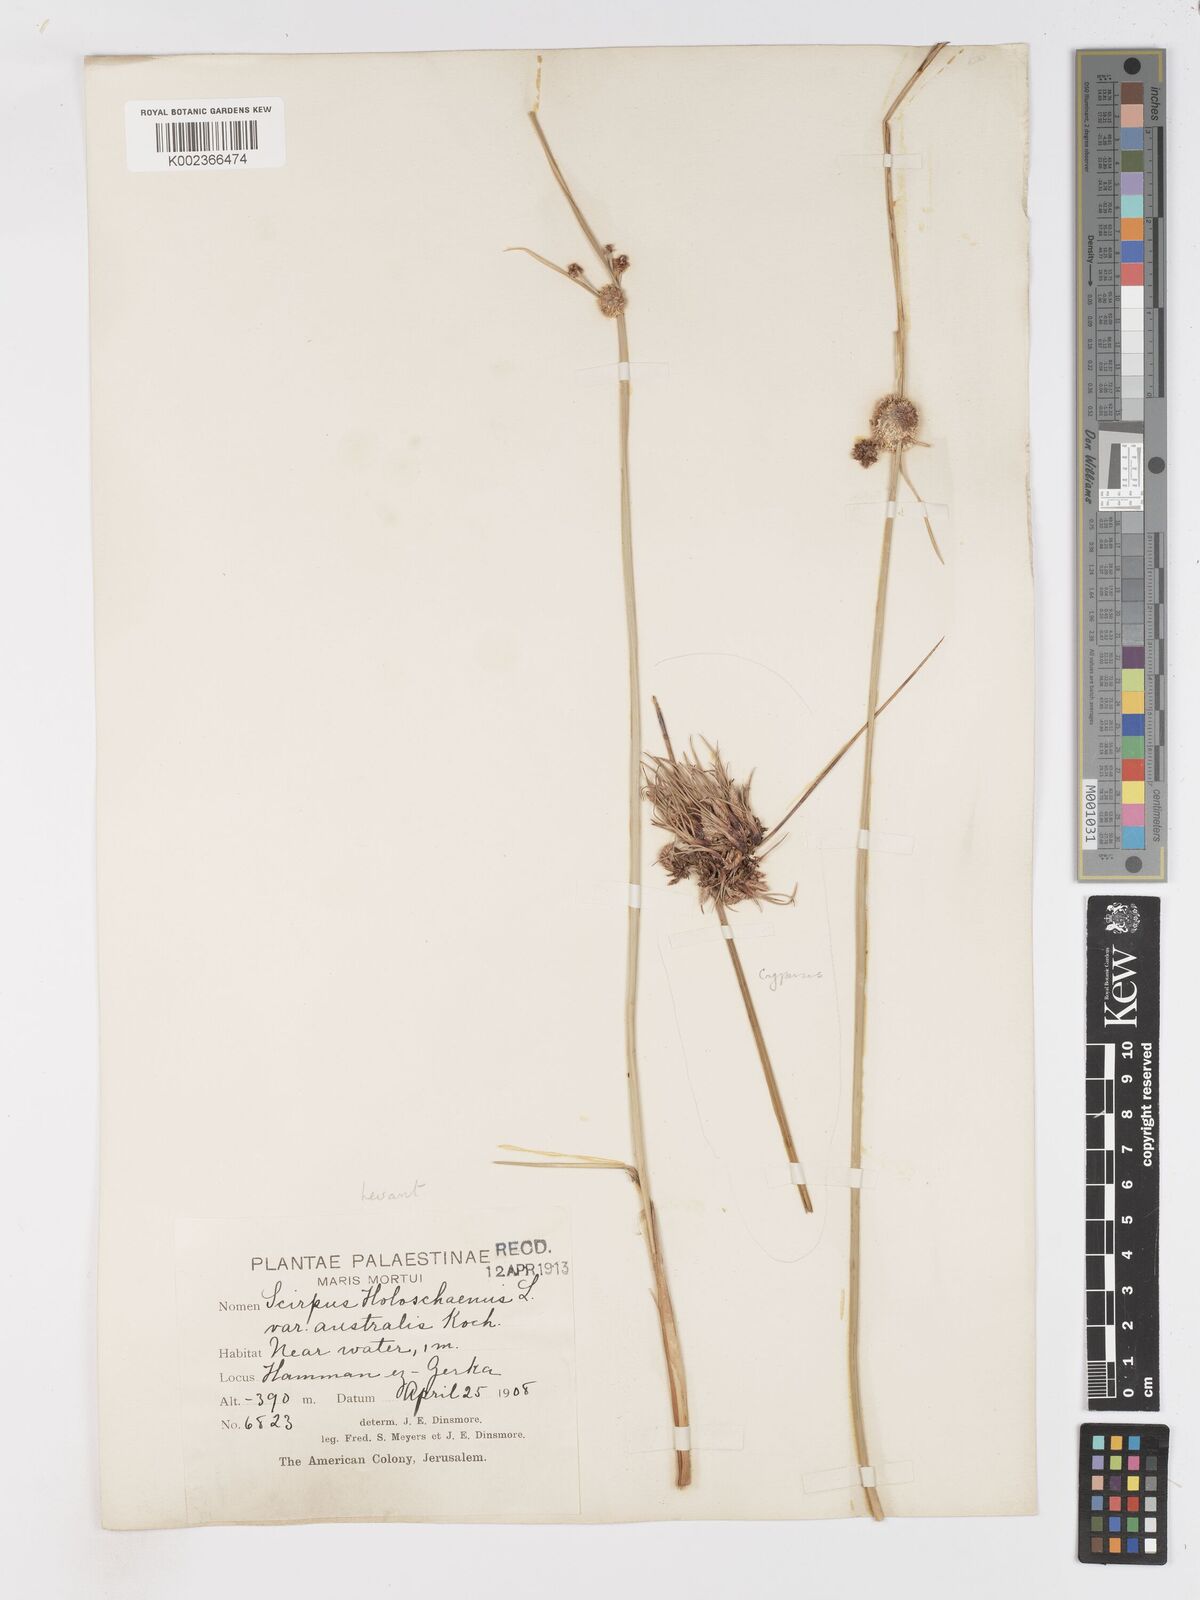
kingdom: Plantae
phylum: Tracheophyta
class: Liliopsida
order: Poales
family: Cyperaceae
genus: Scirpoides
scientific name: Scirpoides holoschoenus
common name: Round-headed club-rush
